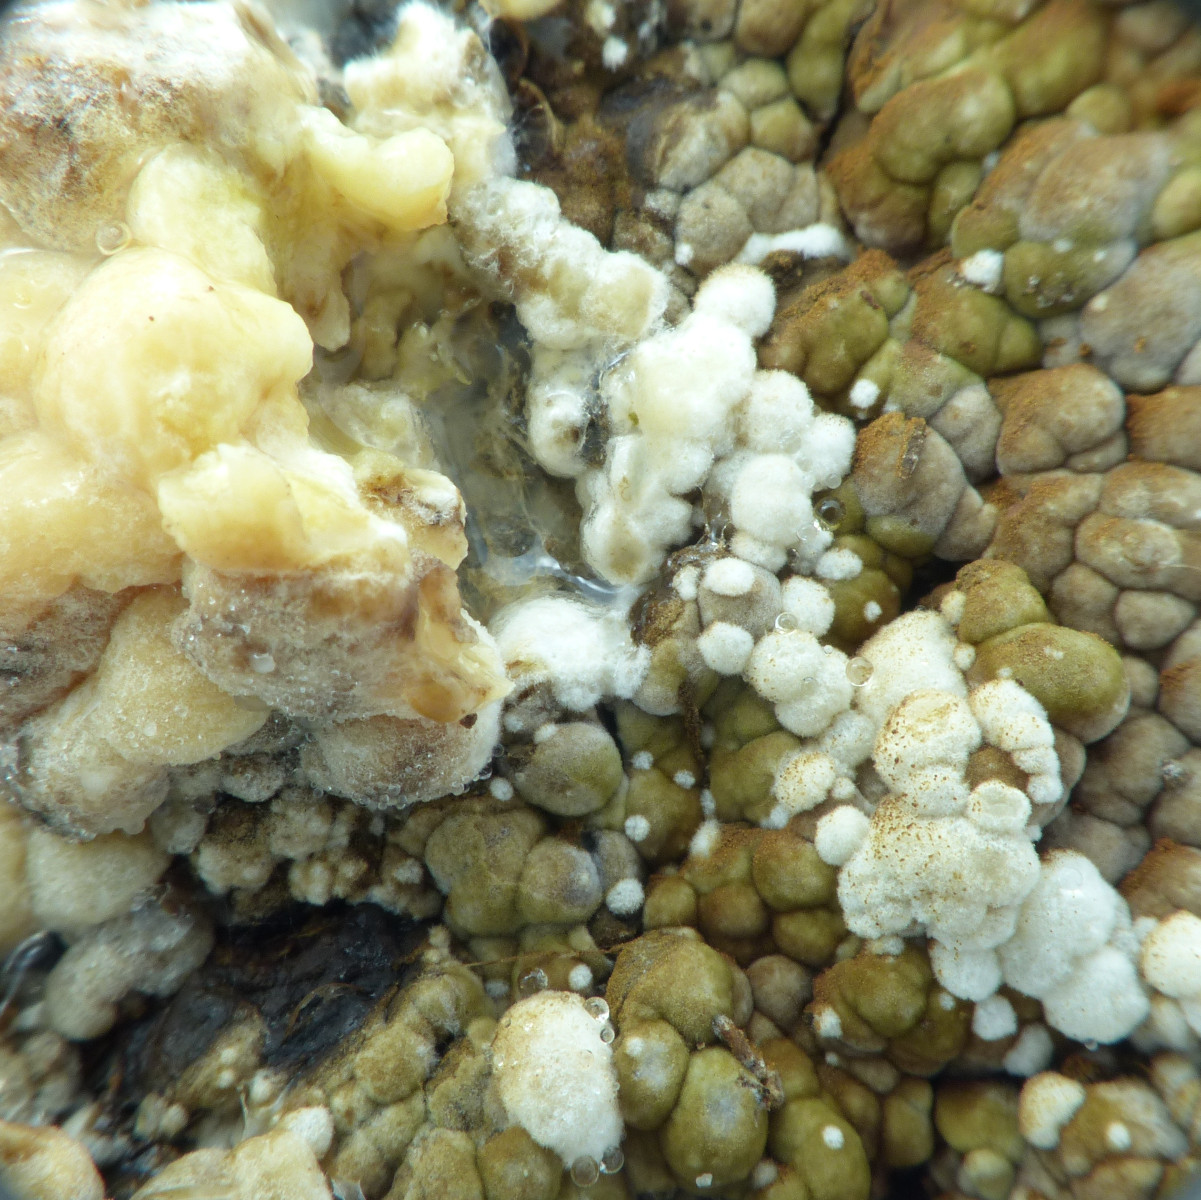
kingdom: Fungi
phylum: Basidiomycota
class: Agaricomycetes
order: Boletales
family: Coniophoraceae
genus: Coniophora
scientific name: Coniophora puteana
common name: gul tømmersvamp
